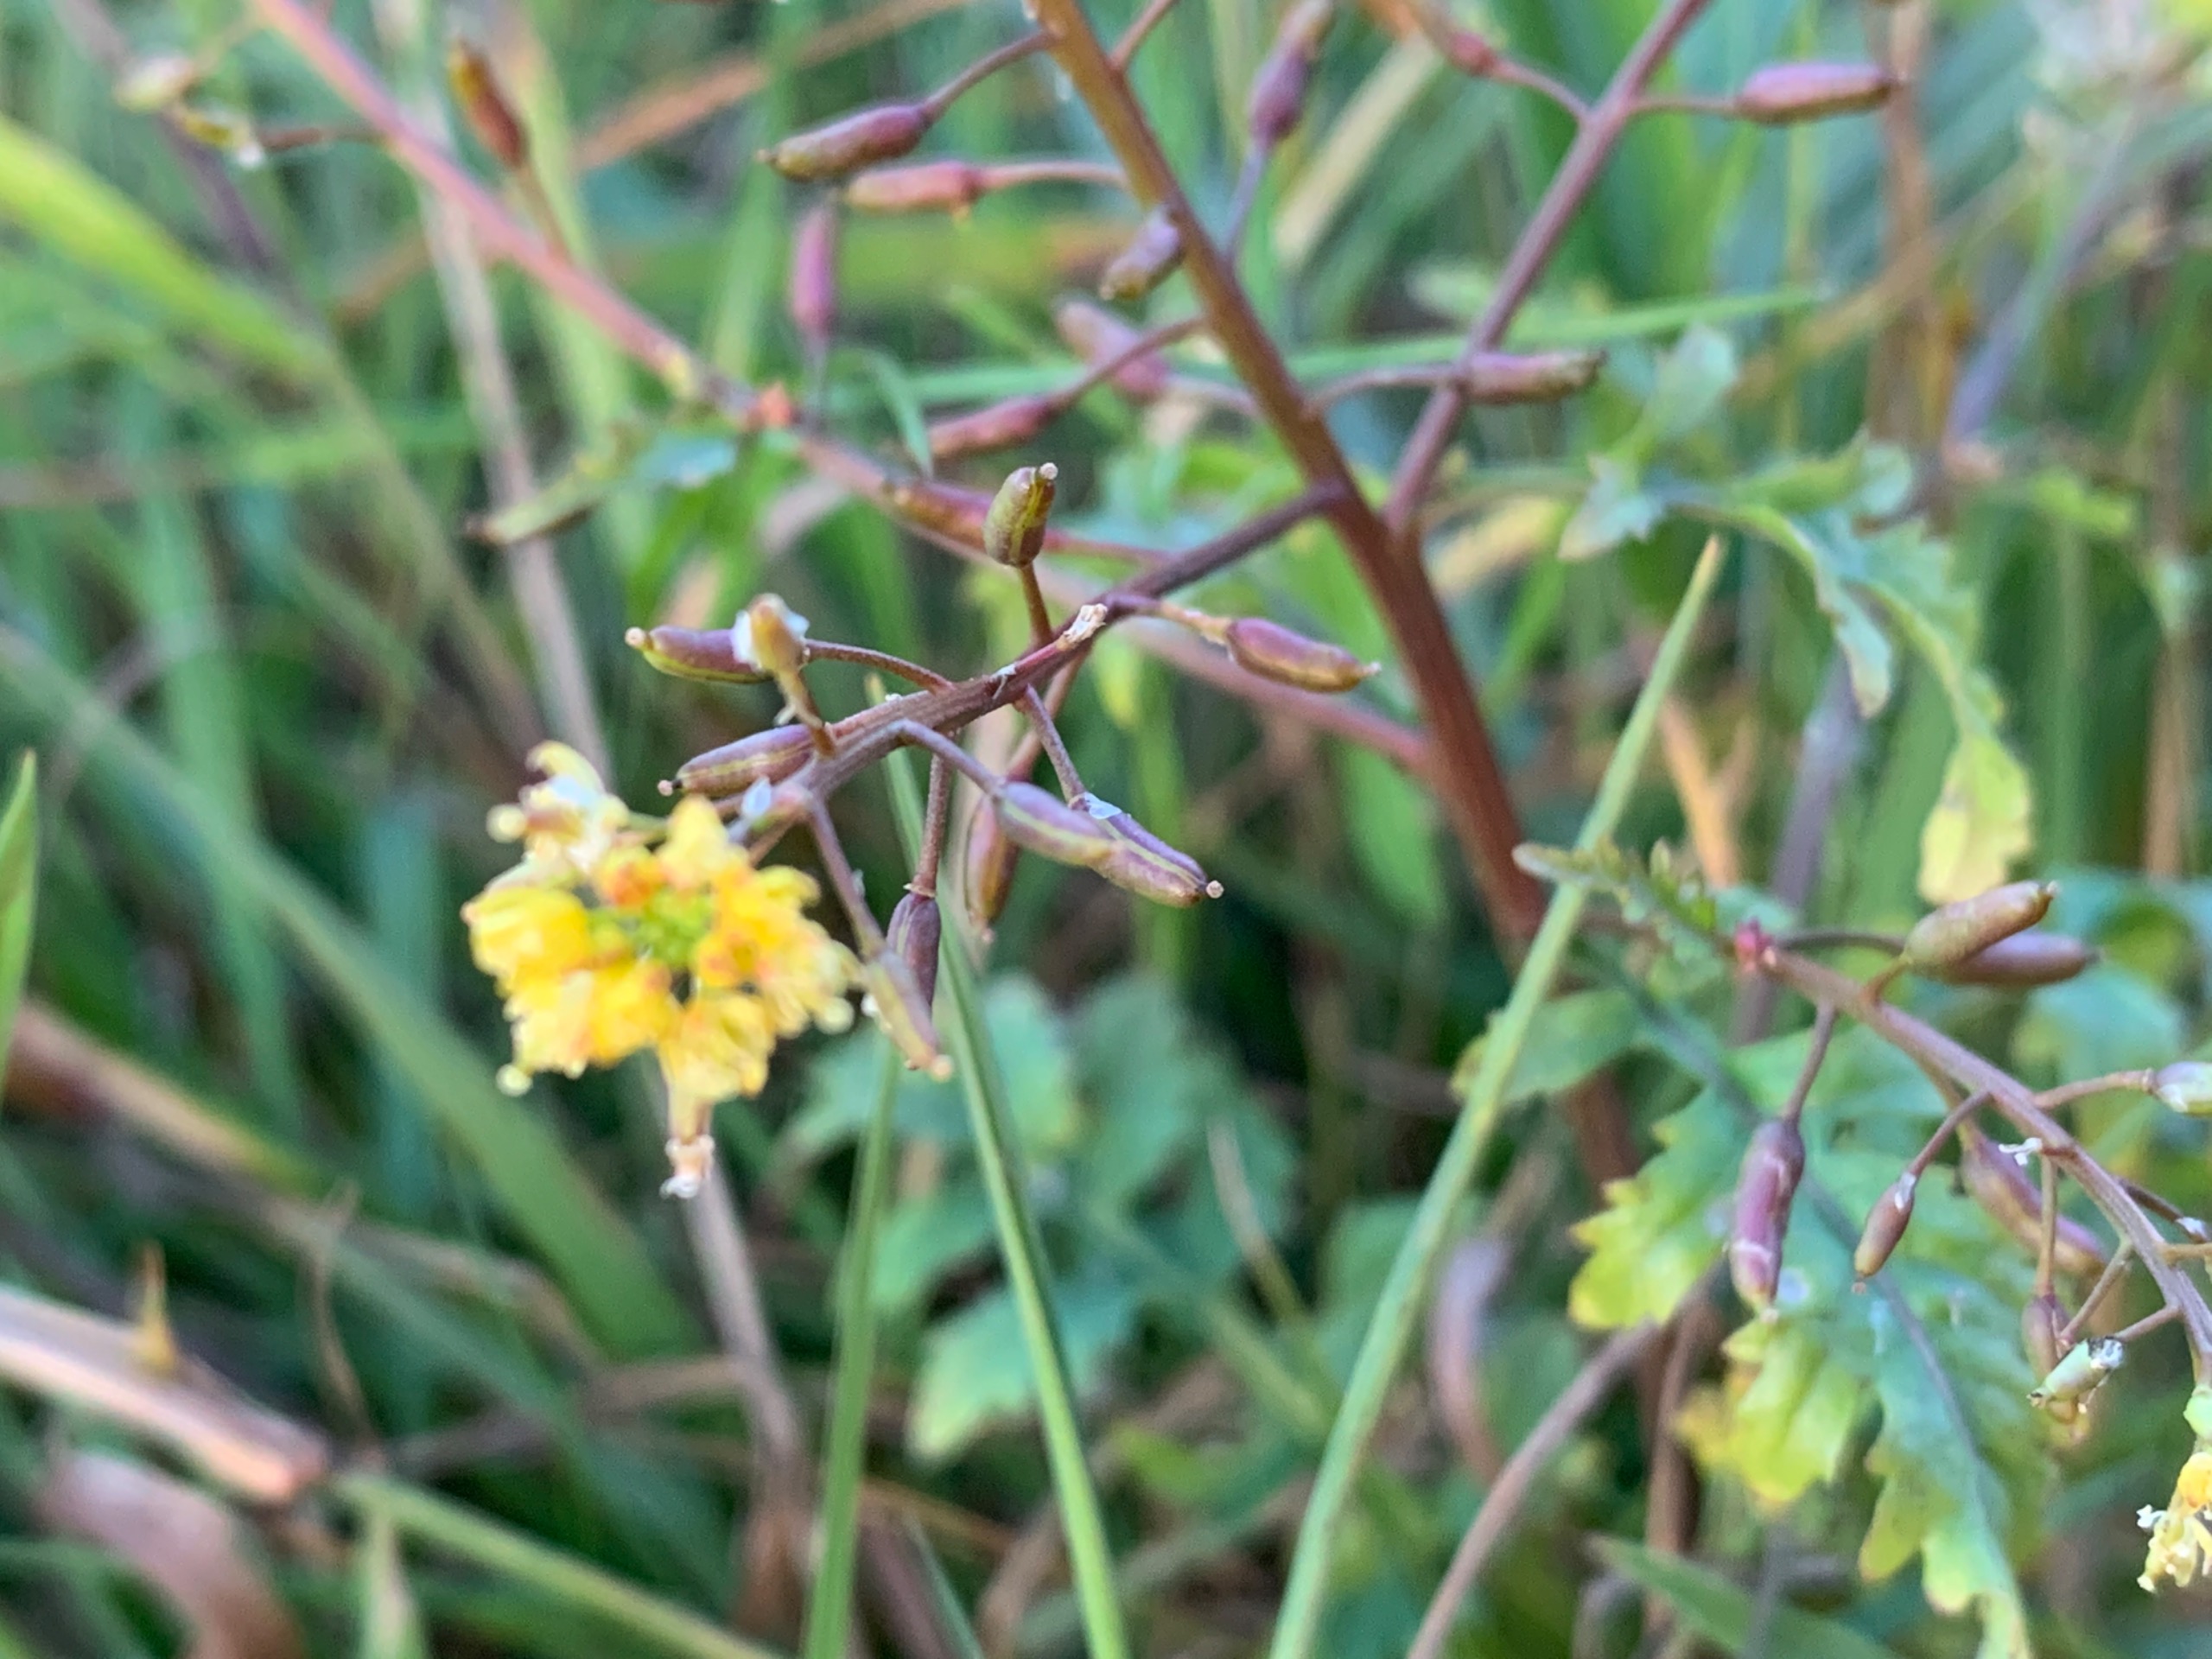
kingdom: Plantae
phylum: Tracheophyta
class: Magnoliopsida
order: Brassicales
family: Brassicaceae
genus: Rorippa
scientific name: Rorippa palustris
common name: Kær-guldkarse
